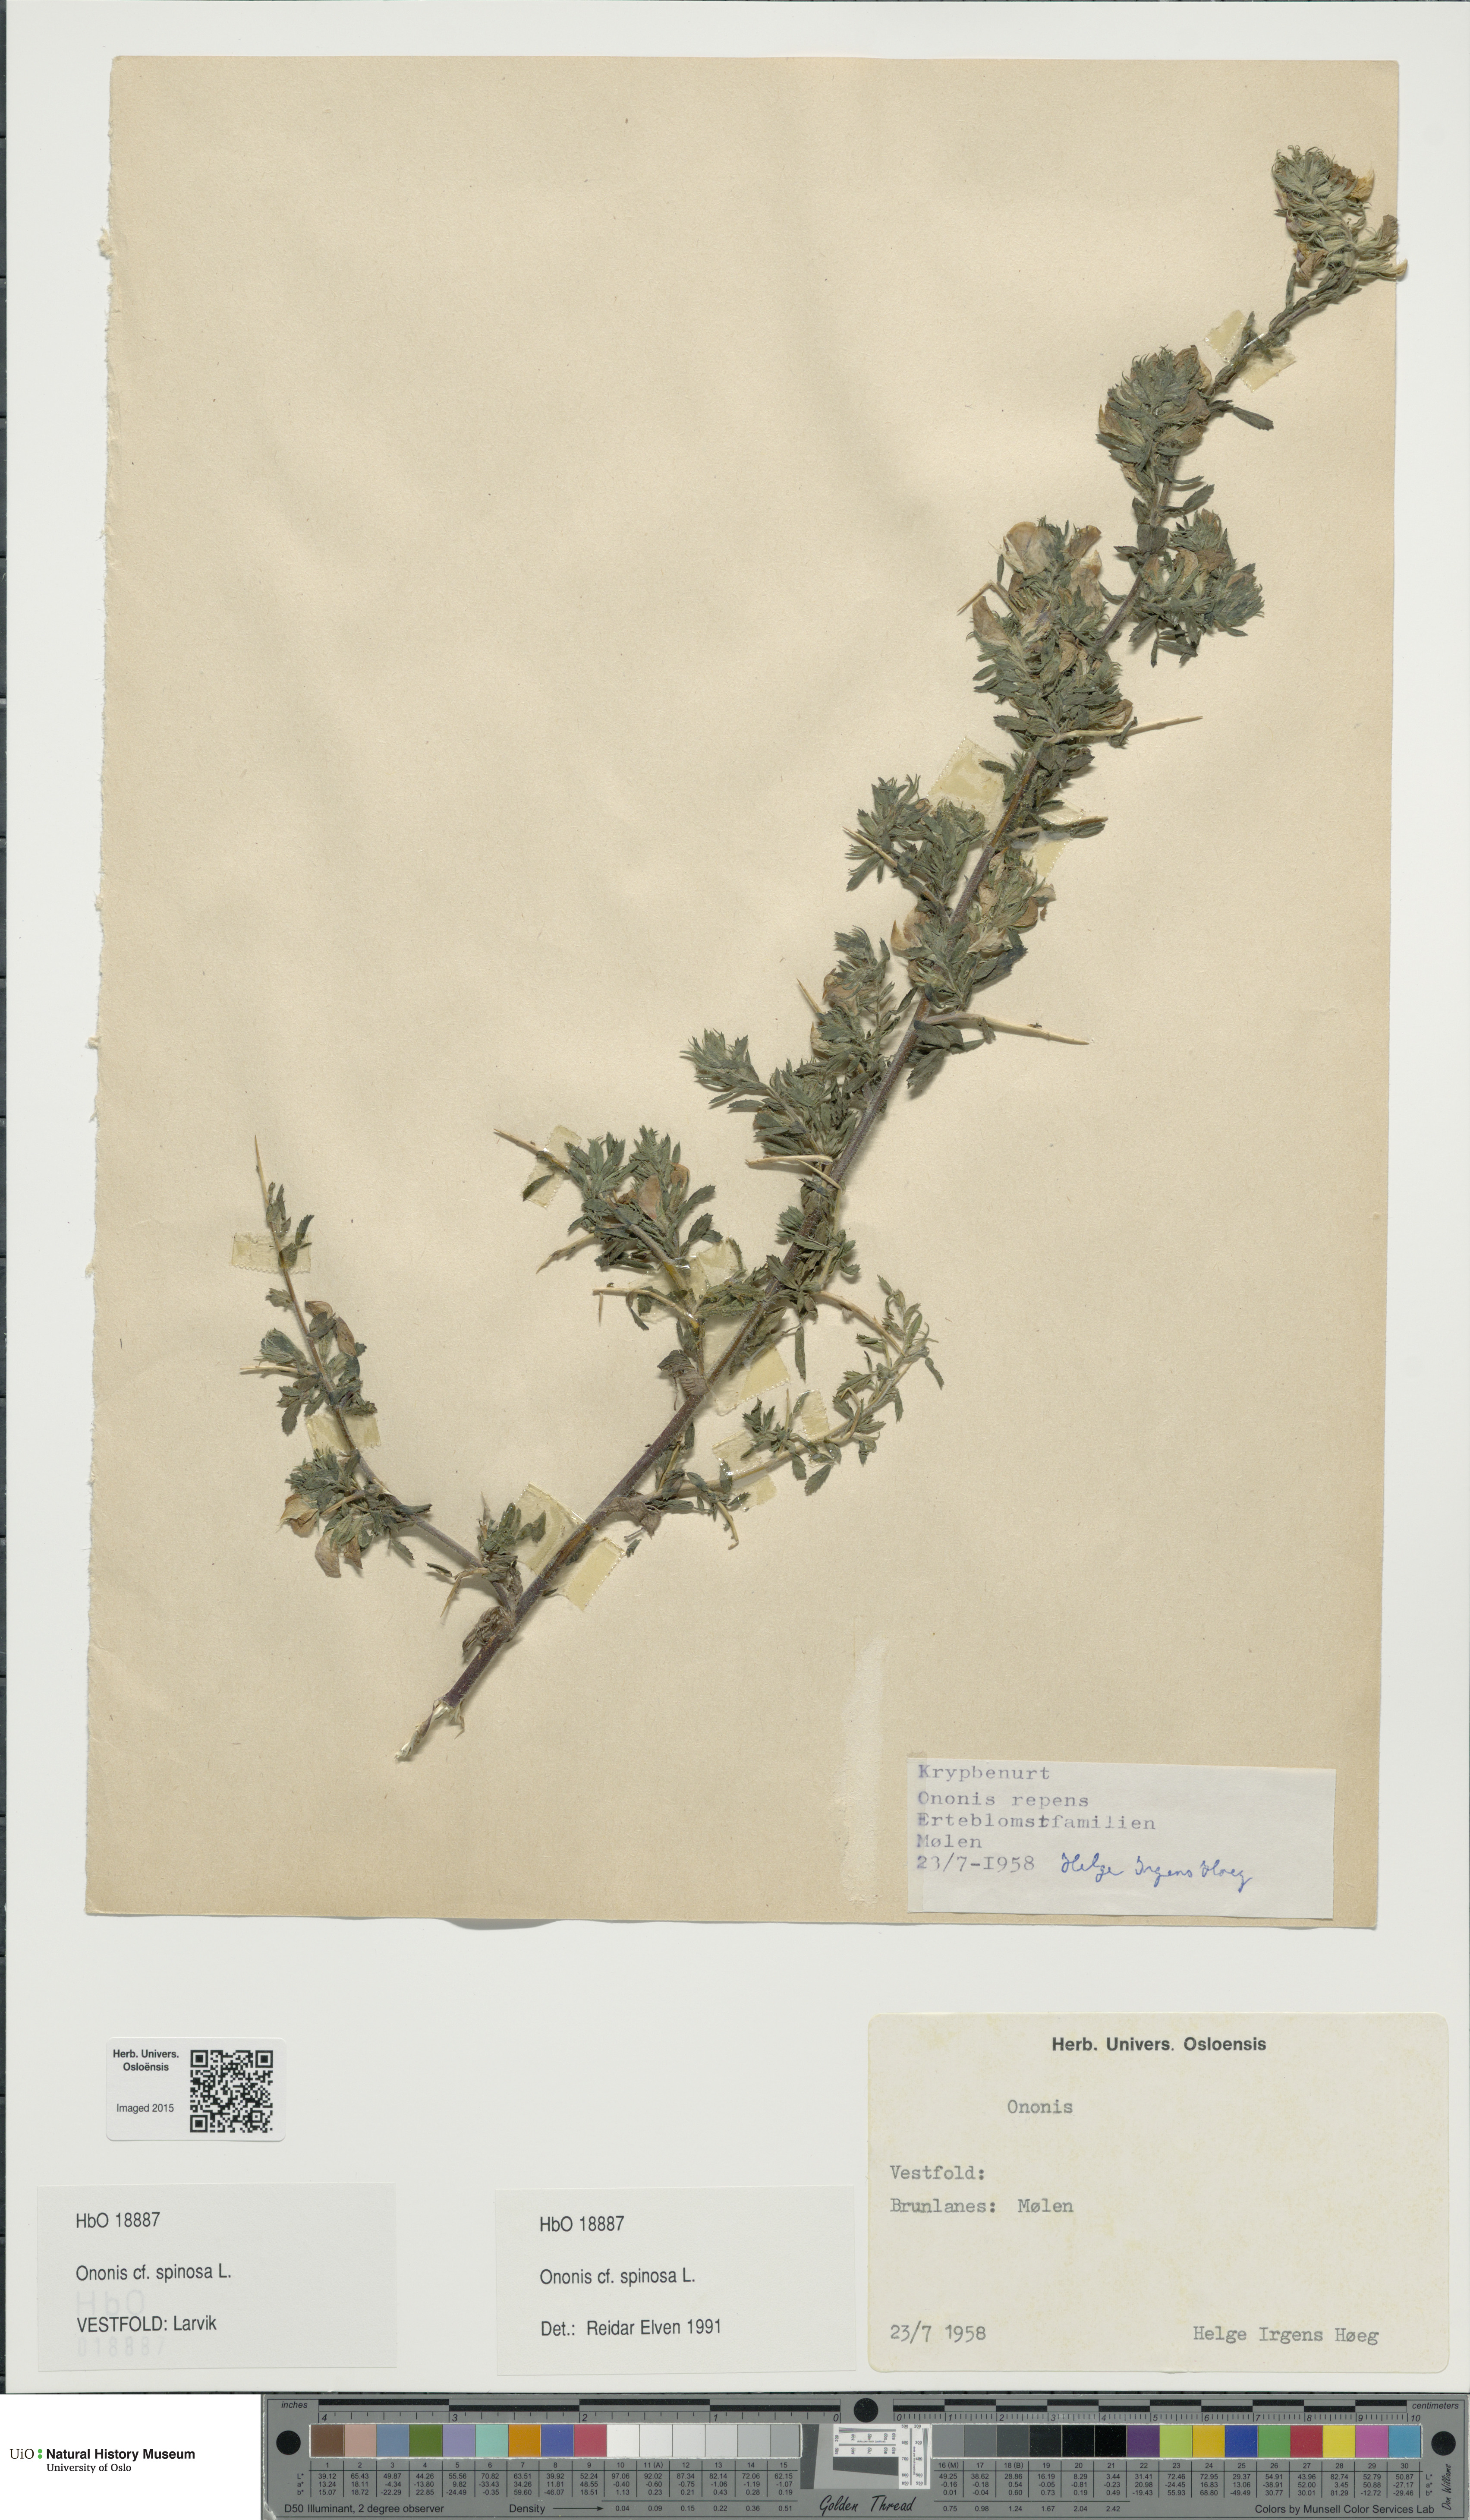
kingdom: Plantae
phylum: Tracheophyta
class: Magnoliopsida
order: Fabales
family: Fabaceae
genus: Ononis
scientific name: Ononis spinosa
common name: Spiny restharrow
